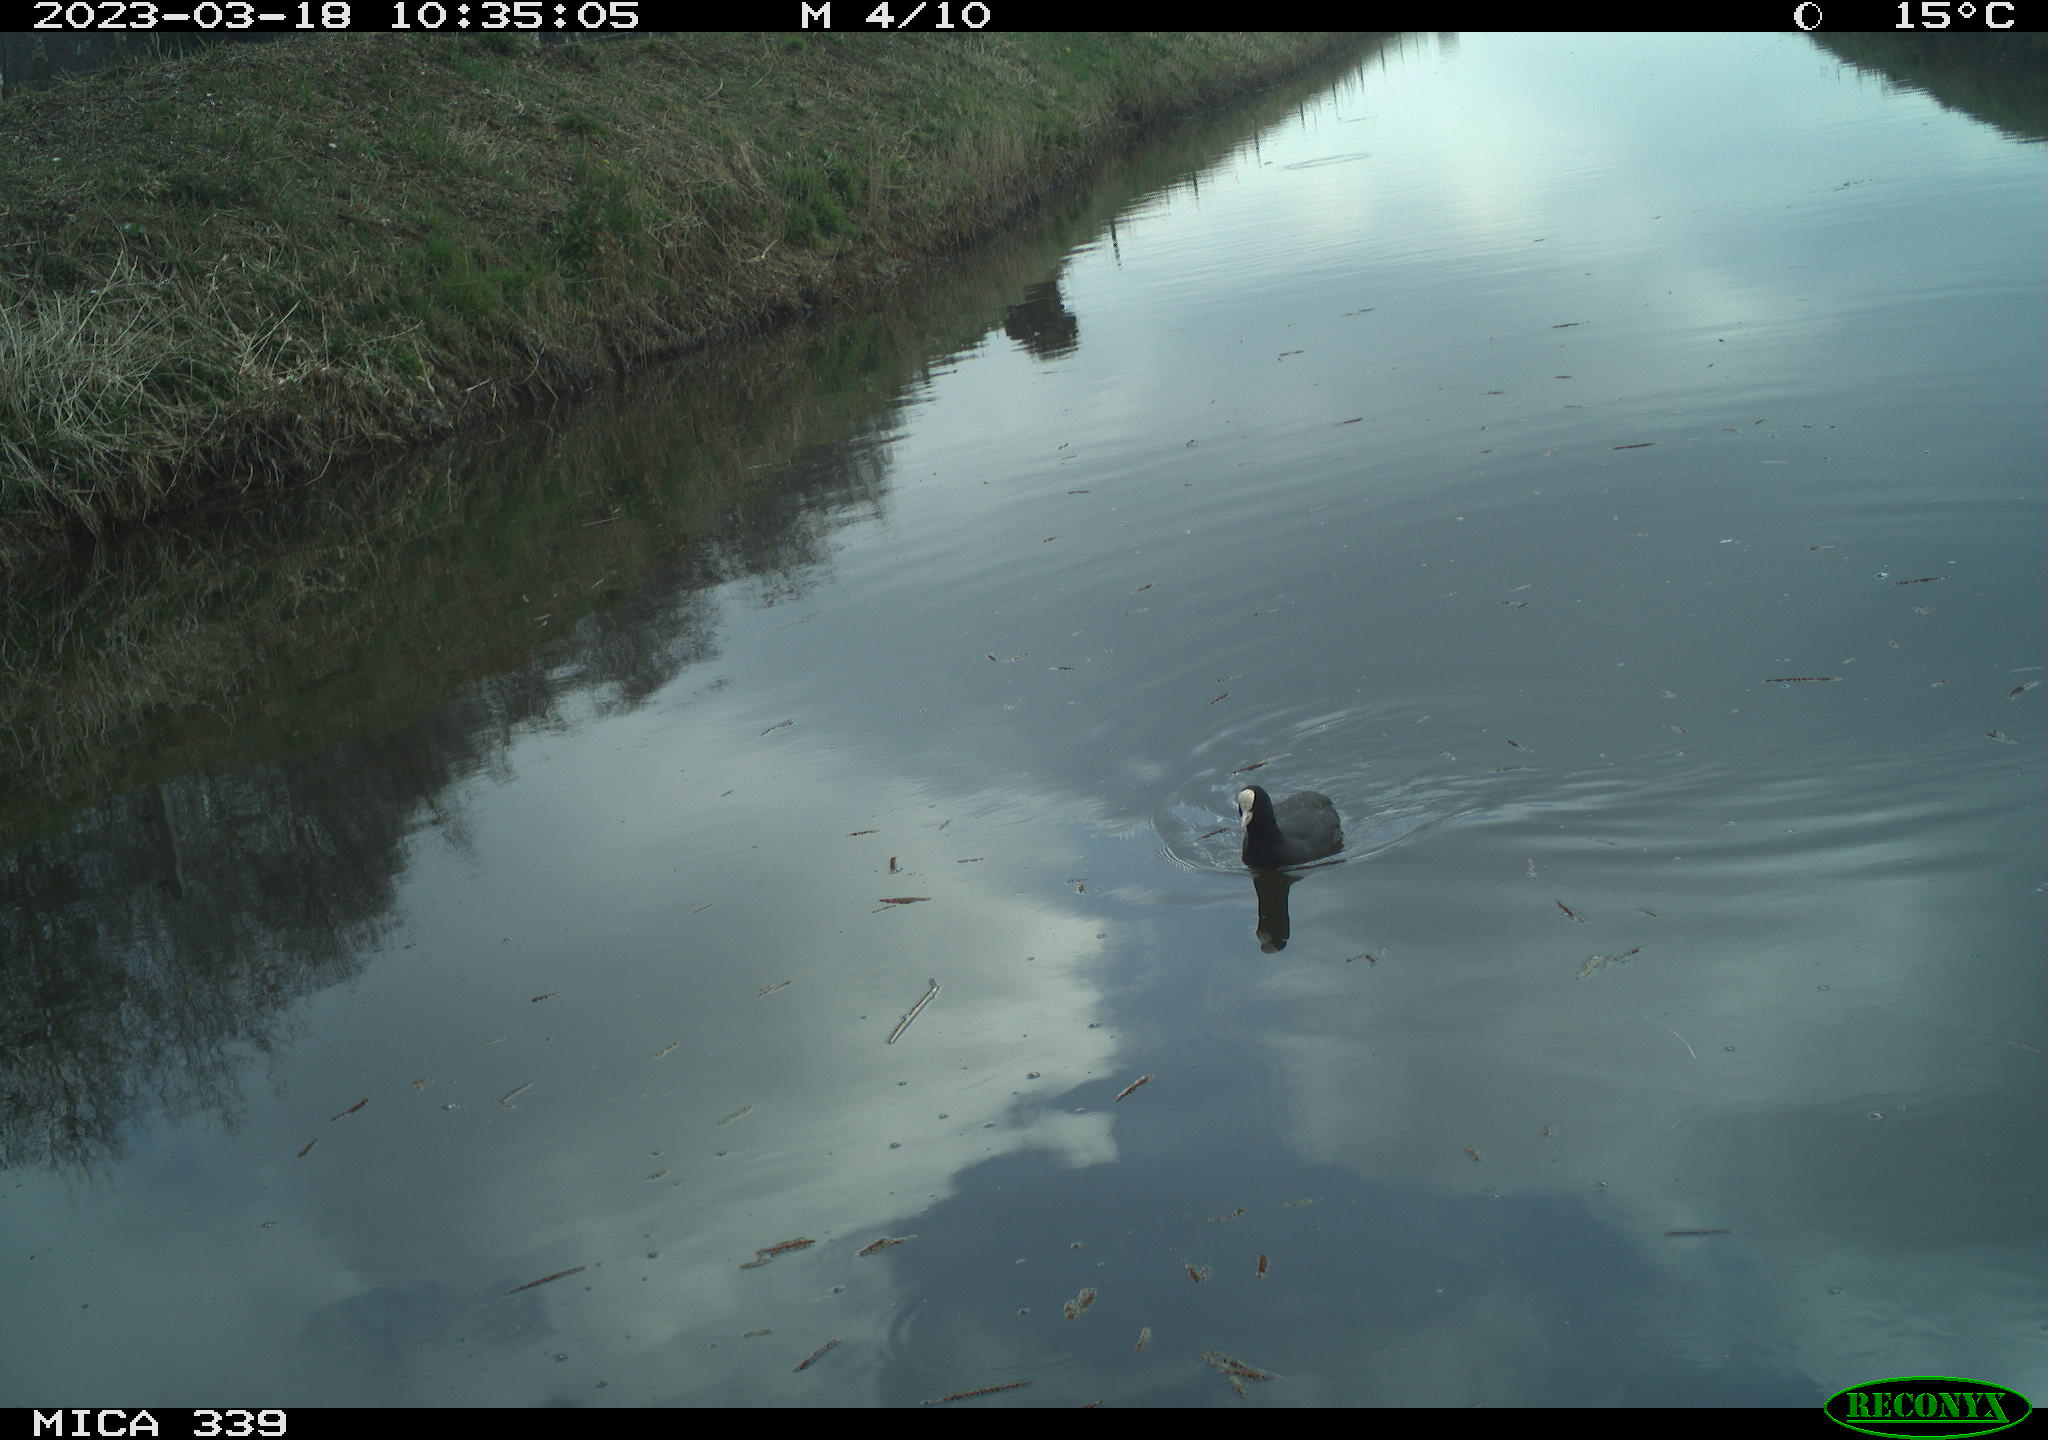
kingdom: Animalia
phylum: Chordata
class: Aves
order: Gruiformes
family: Rallidae
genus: Fulica
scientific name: Fulica atra
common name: Eurasian coot
